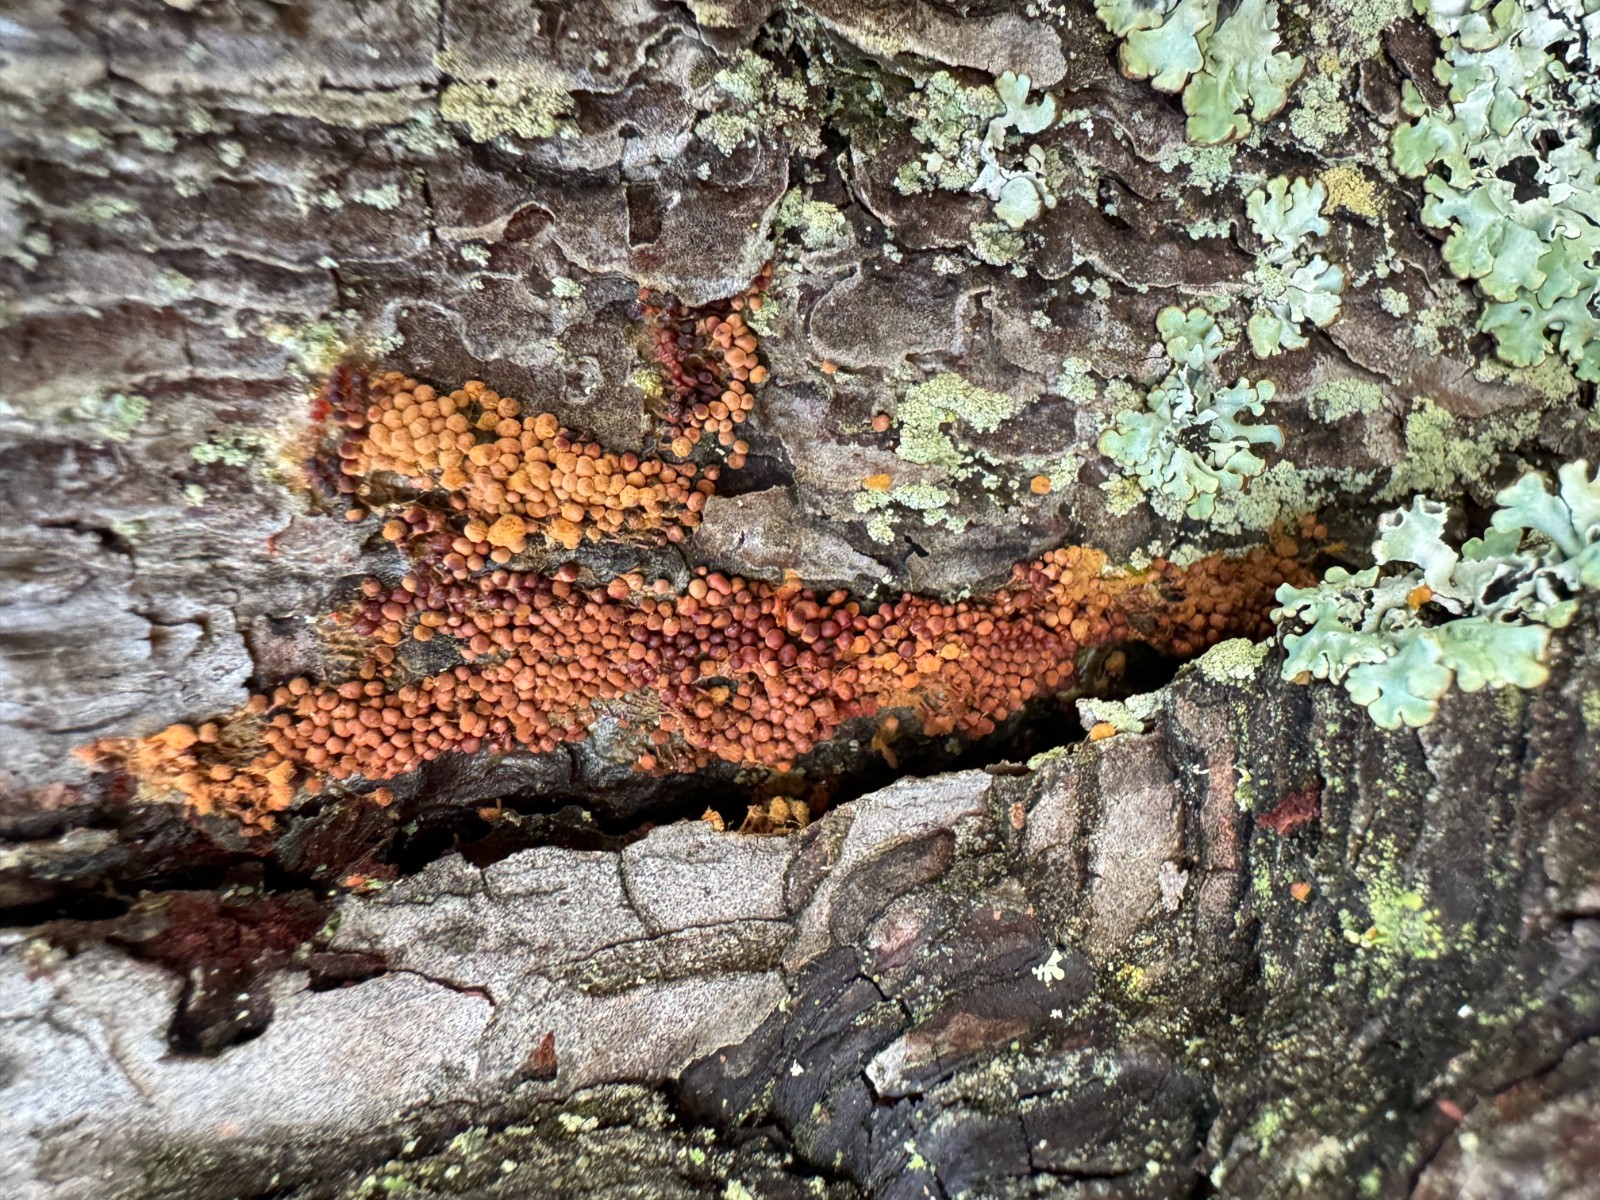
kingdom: Protozoa
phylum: Mycetozoa
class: Myxomycetes
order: Trichiales
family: Arcyriaceae
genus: Arcyria
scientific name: Arcyria ferruginea
